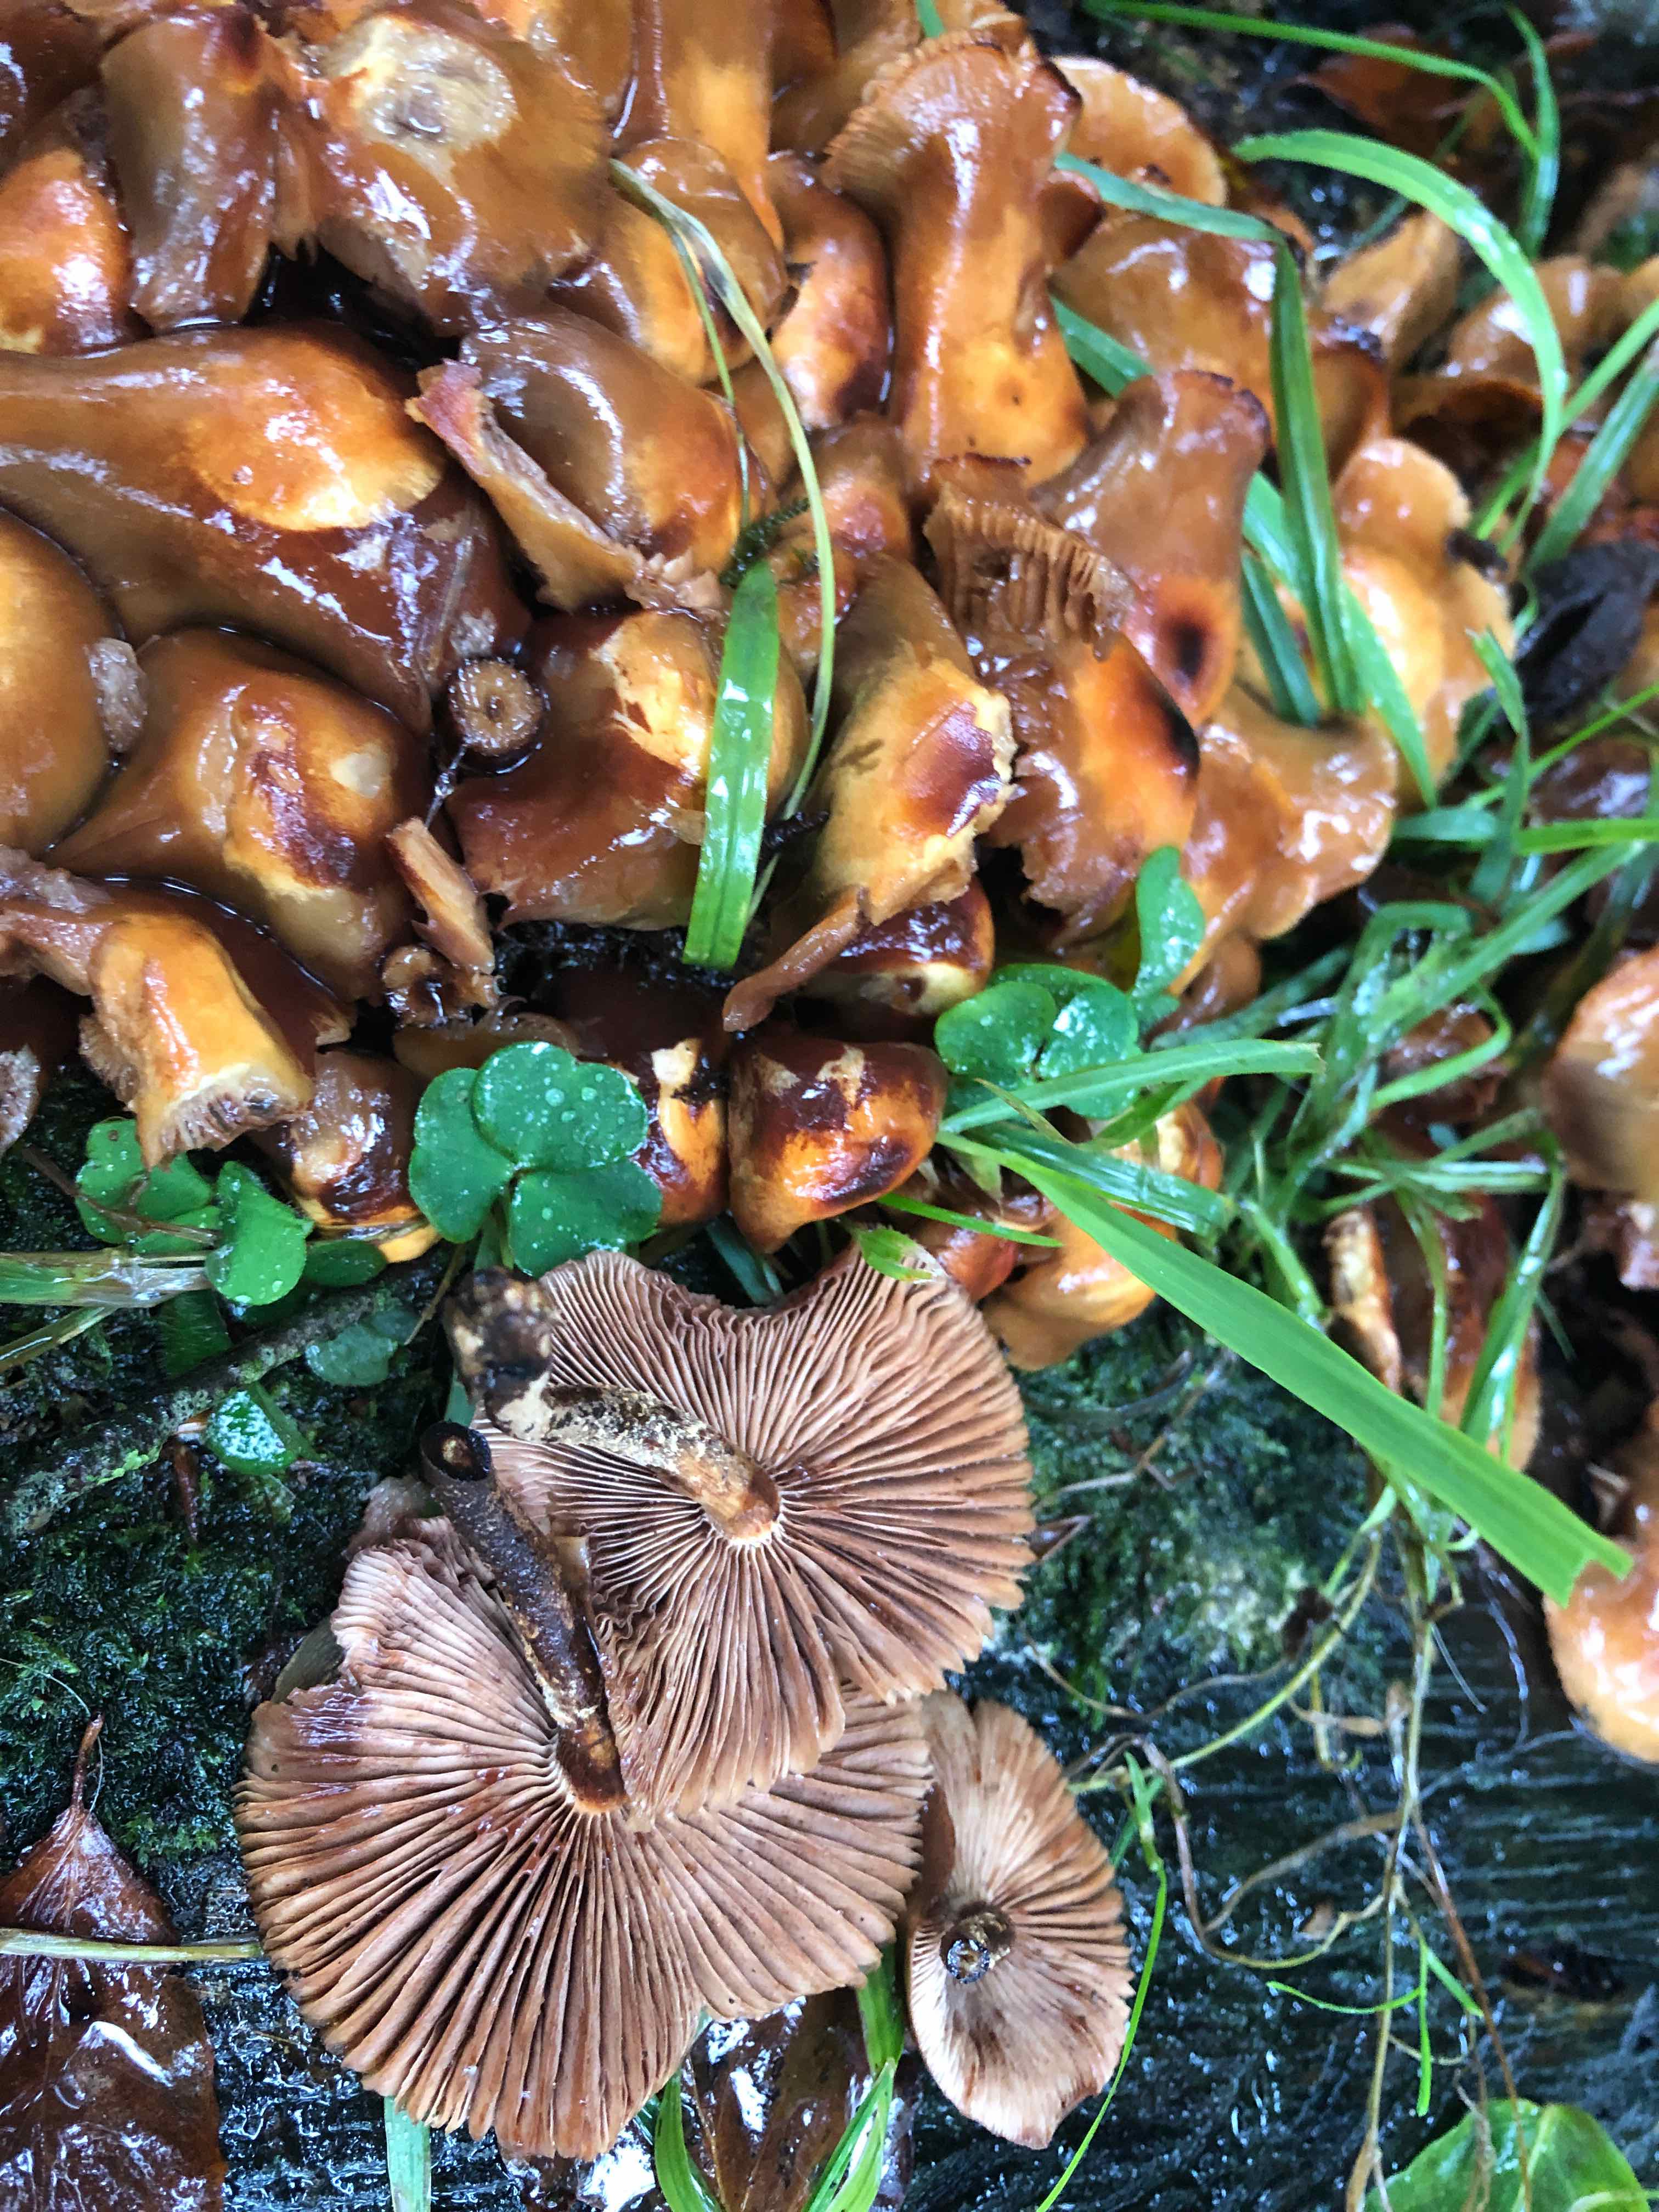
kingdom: Fungi
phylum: Basidiomycota
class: Agaricomycetes
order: Agaricales
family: Strophariaceae
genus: Kuehneromyces
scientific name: Kuehneromyces mutabilis
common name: foranderlig skælhat
